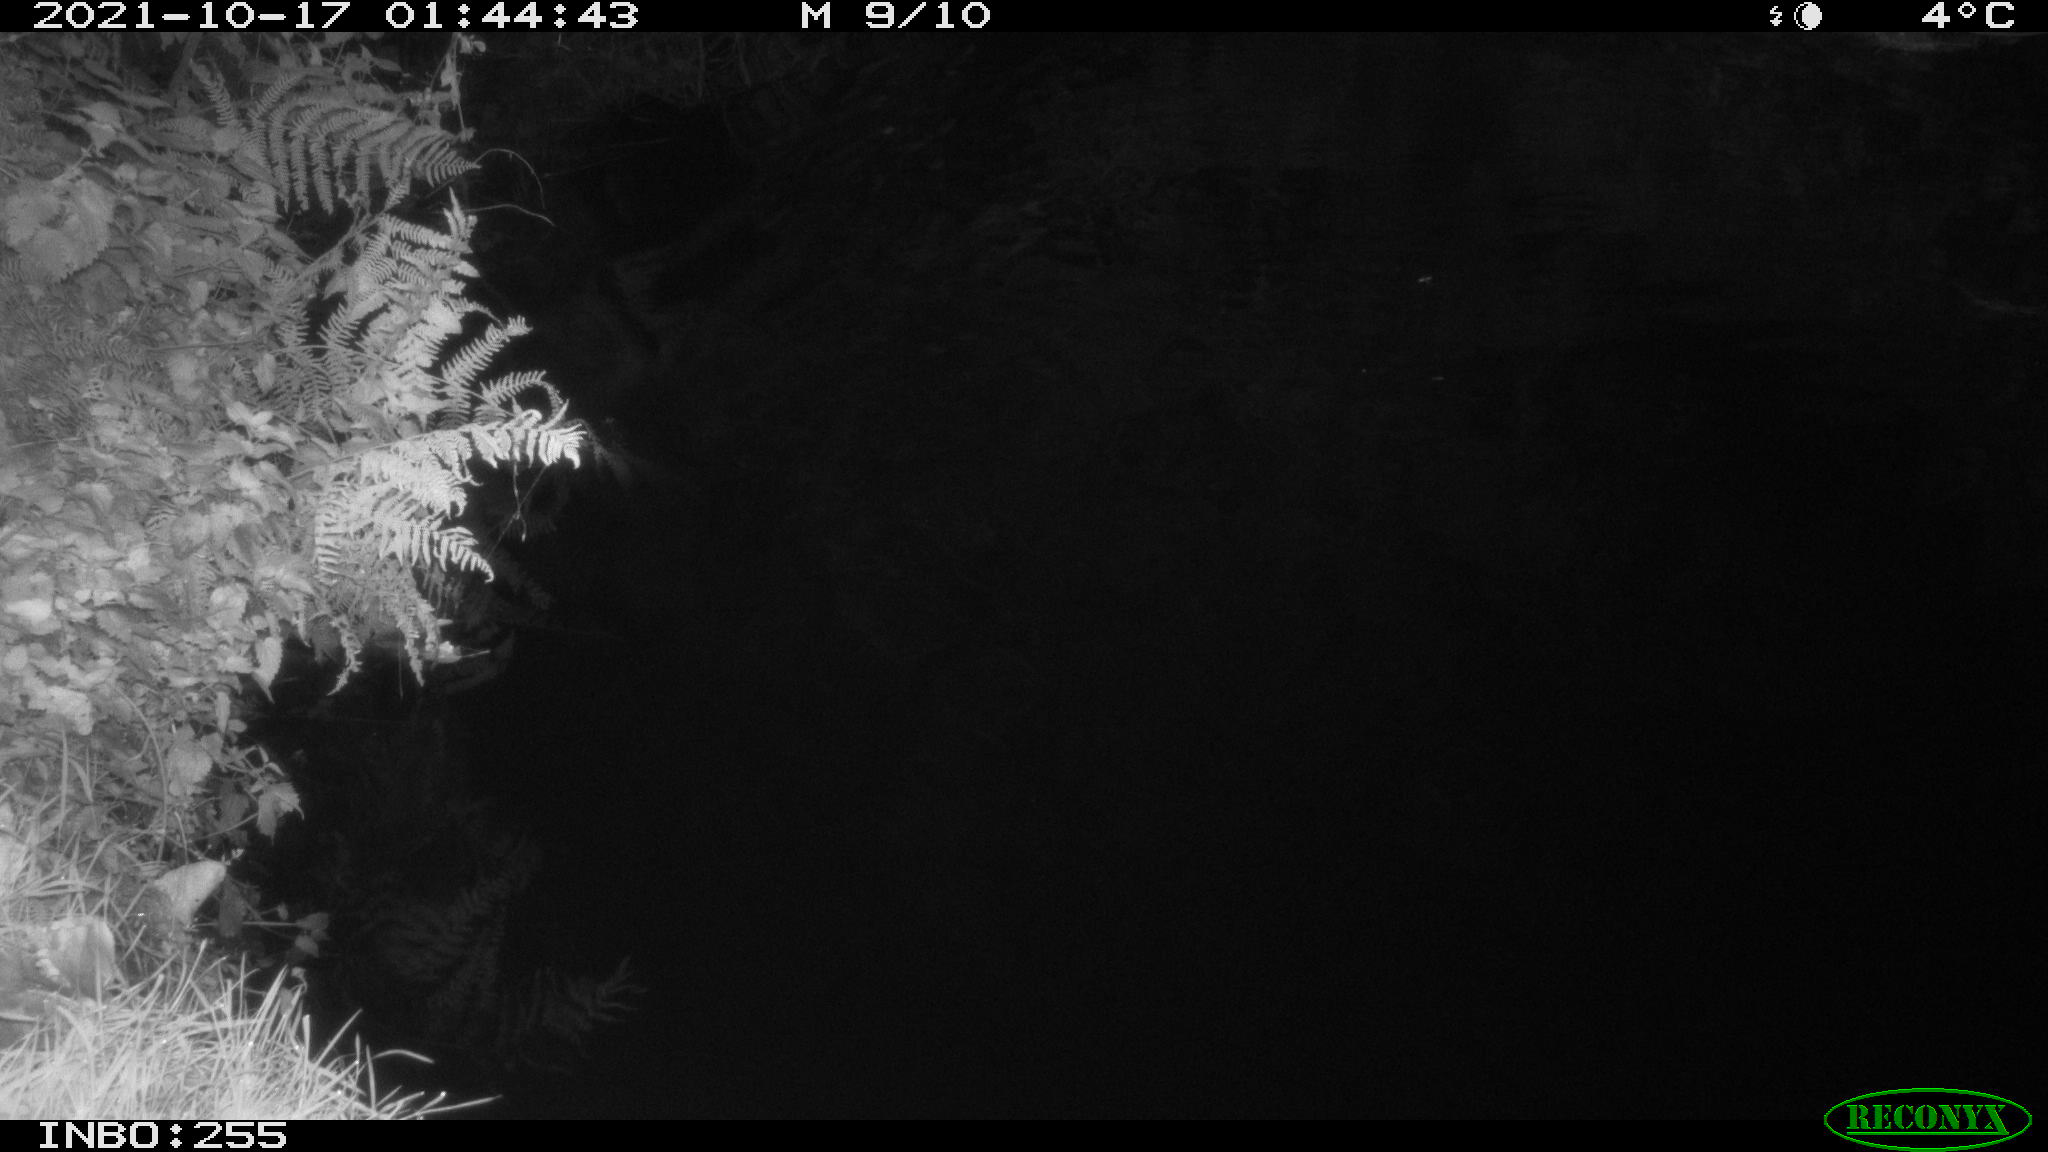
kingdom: Animalia
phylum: Chordata
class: Aves
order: Anseriformes
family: Anatidae
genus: Anas
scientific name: Anas platyrhynchos
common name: Mallard
